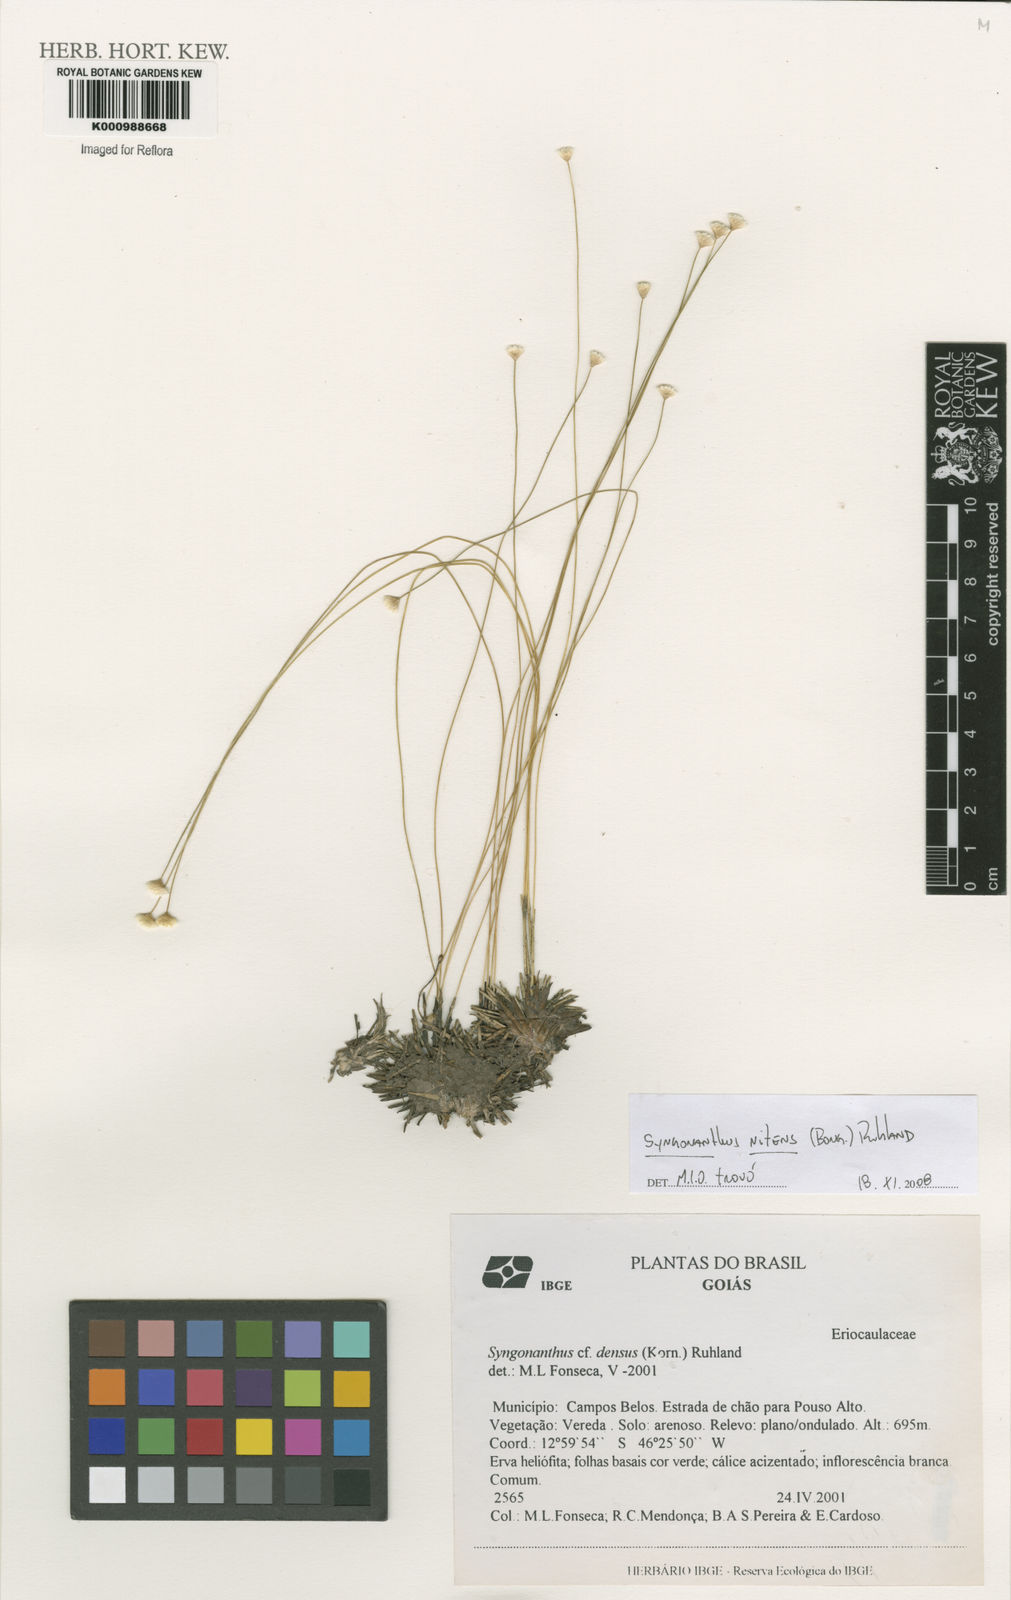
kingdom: Plantae
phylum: Tracheophyta
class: Liliopsida
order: Poales
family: Eriocaulaceae
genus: Syngonanthus
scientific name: Syngonanthus nitens
